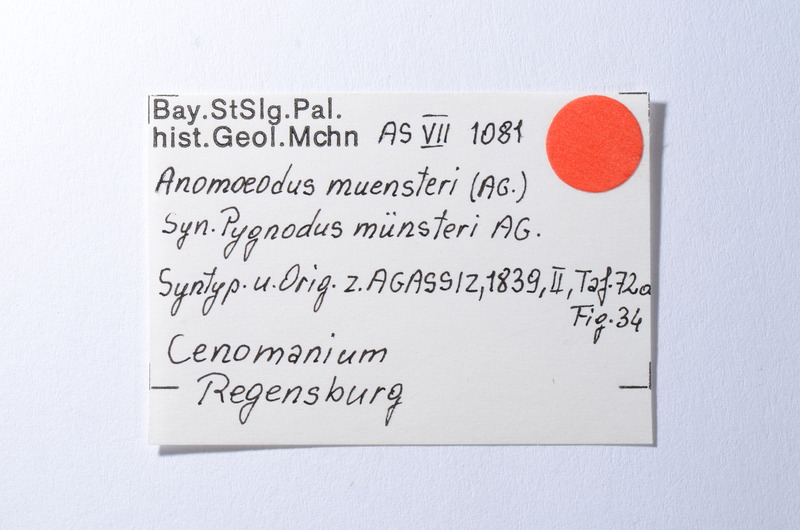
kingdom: Animalia
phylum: Chordata
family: Pycnodontidae
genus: Anomoeodus
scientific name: Anomoeodus
